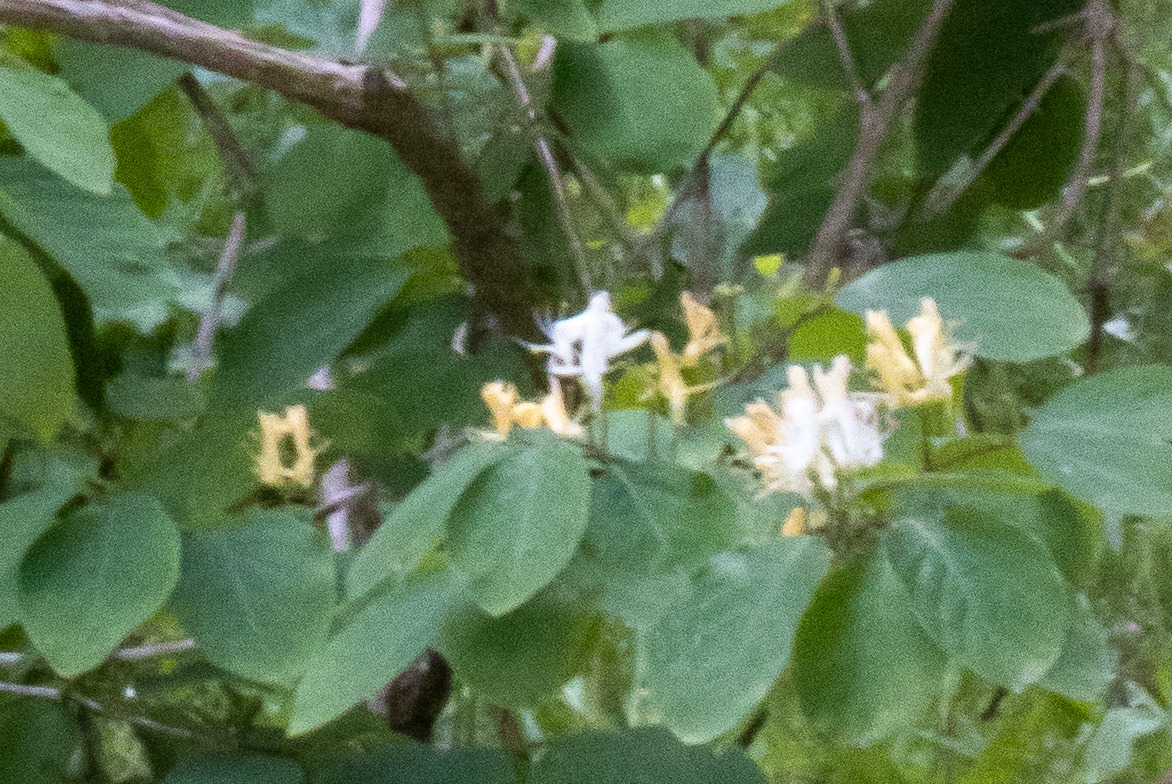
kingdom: Plantae
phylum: Tracheophyta
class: Magnoliopsida
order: Dipsacales
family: Caprifoliaceae
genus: Lonicera
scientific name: Lonicera xylosteum
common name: Dunet gedeblad
